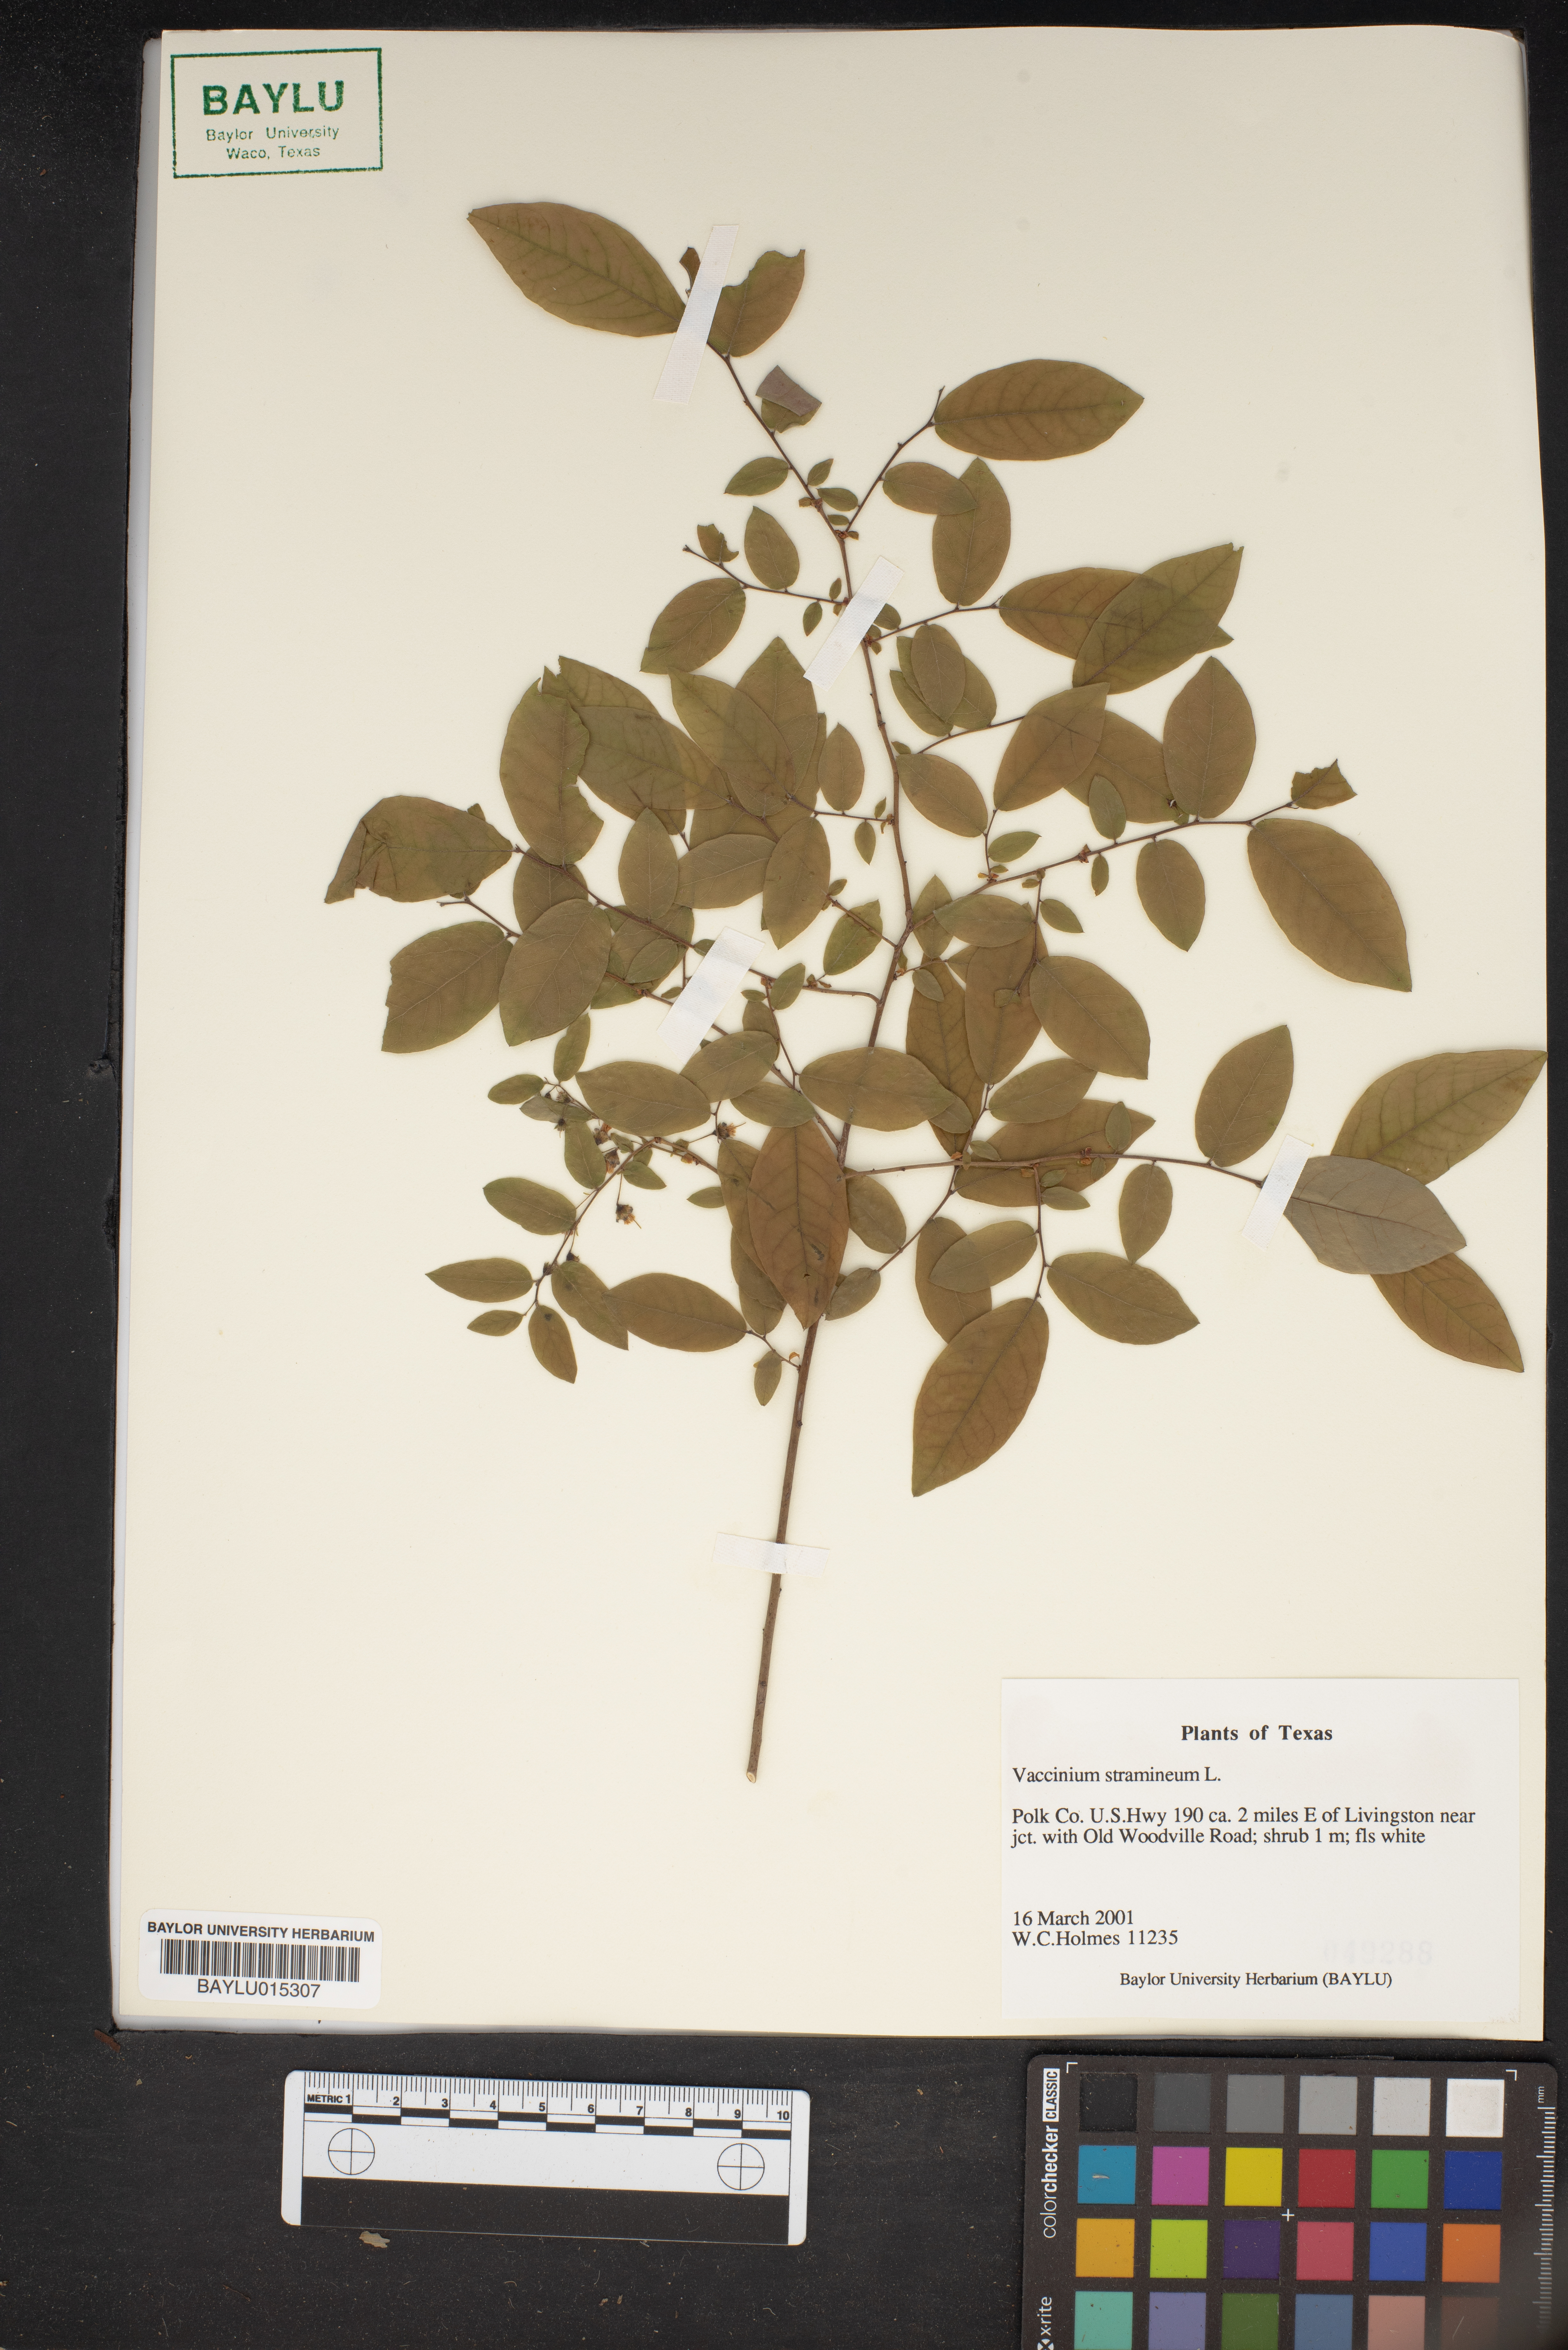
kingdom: Plantae
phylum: Tracheophyta
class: Magnoliopsida
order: Ericales
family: Ericaceae
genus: Vaccinium
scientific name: Vaccinium stramineum
